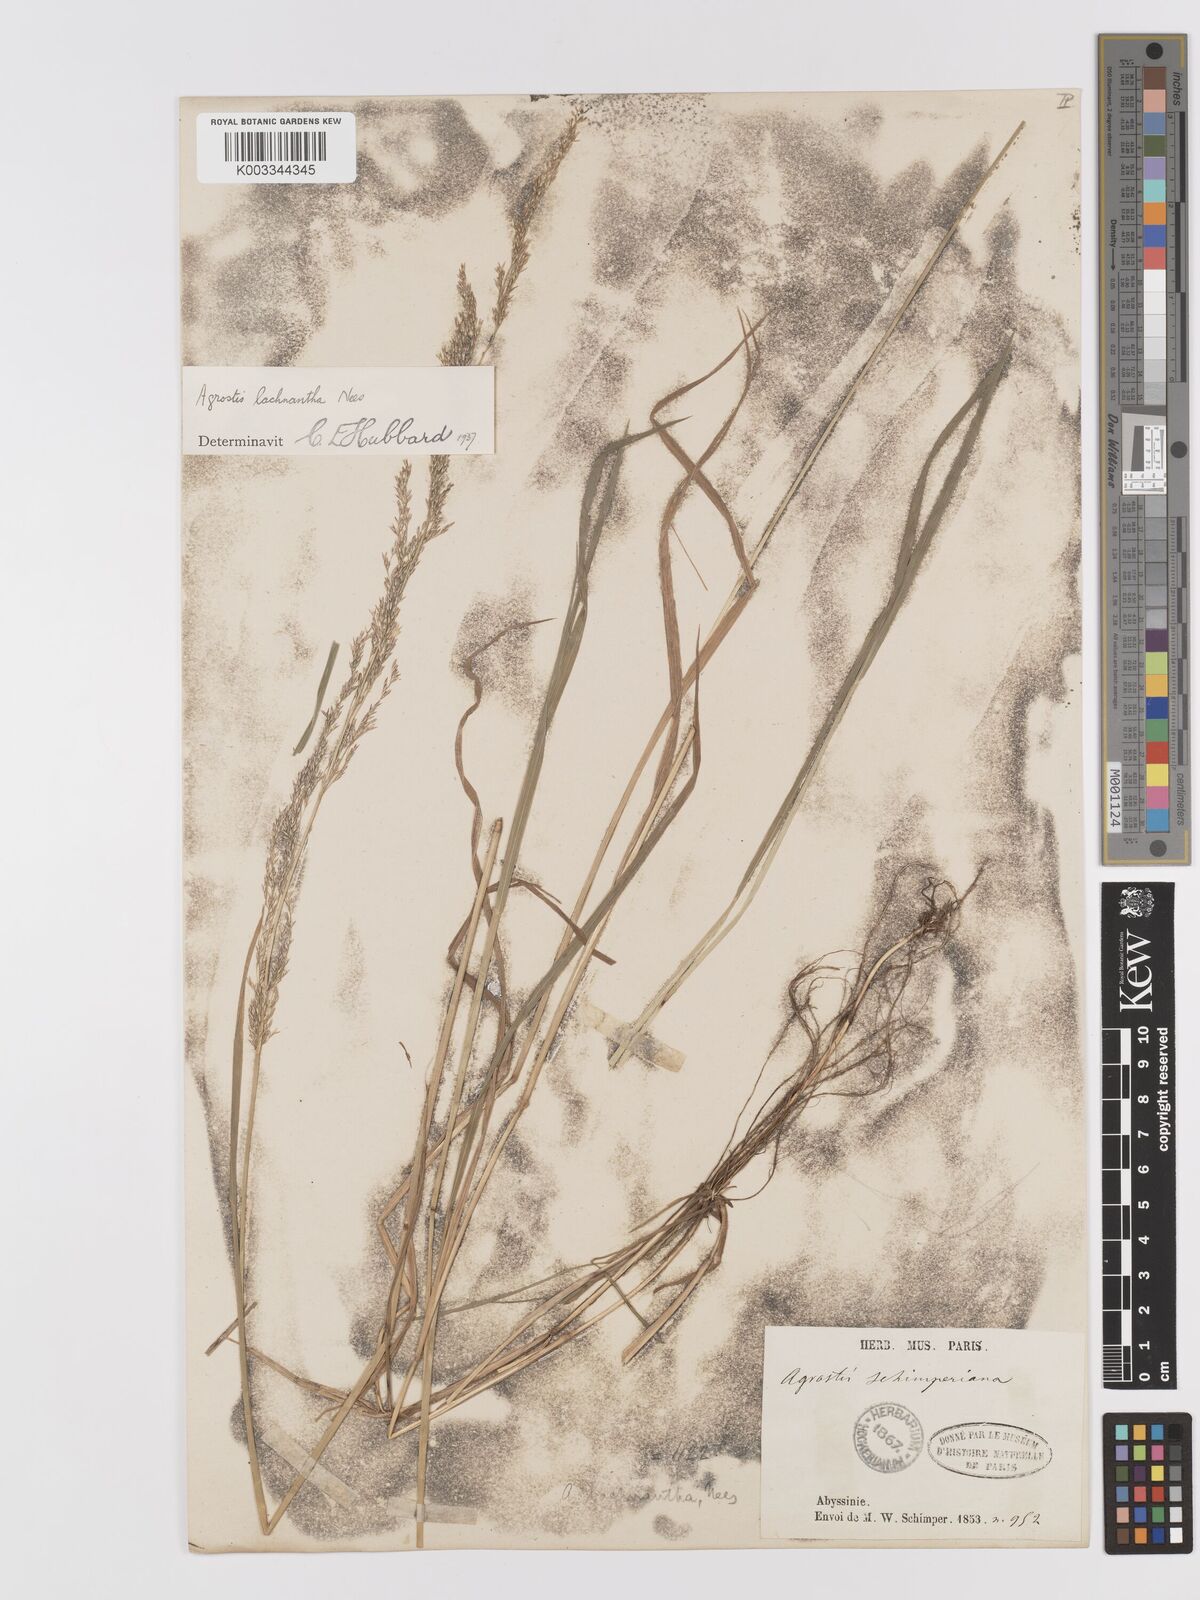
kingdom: Plantae
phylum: Tracheophyta
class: Liliopsida
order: Poales
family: Poaceae
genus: Lachnagrostis
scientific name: Lachnagrostis lachnantha
